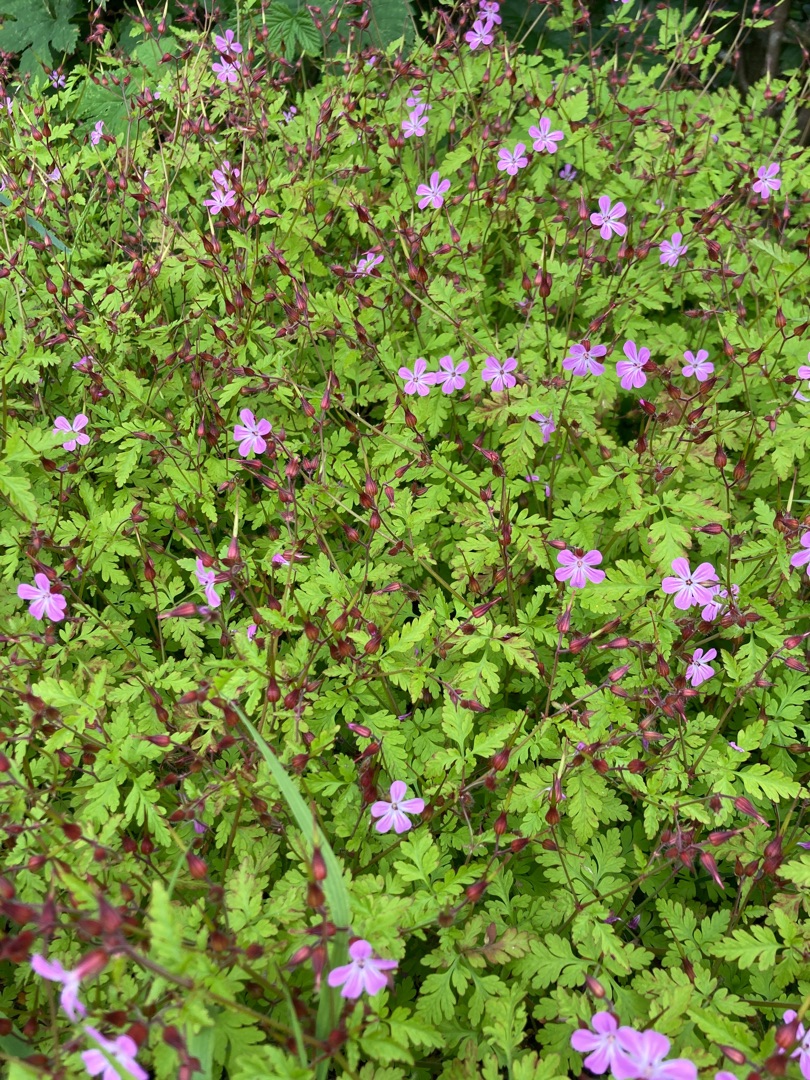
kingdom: Plantae
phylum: Tracheophyta
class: Magnoliopsida
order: Geraniales
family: Geraniaceae
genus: Geranium
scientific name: Geranium robertianum
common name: Stinkende storkenæb
